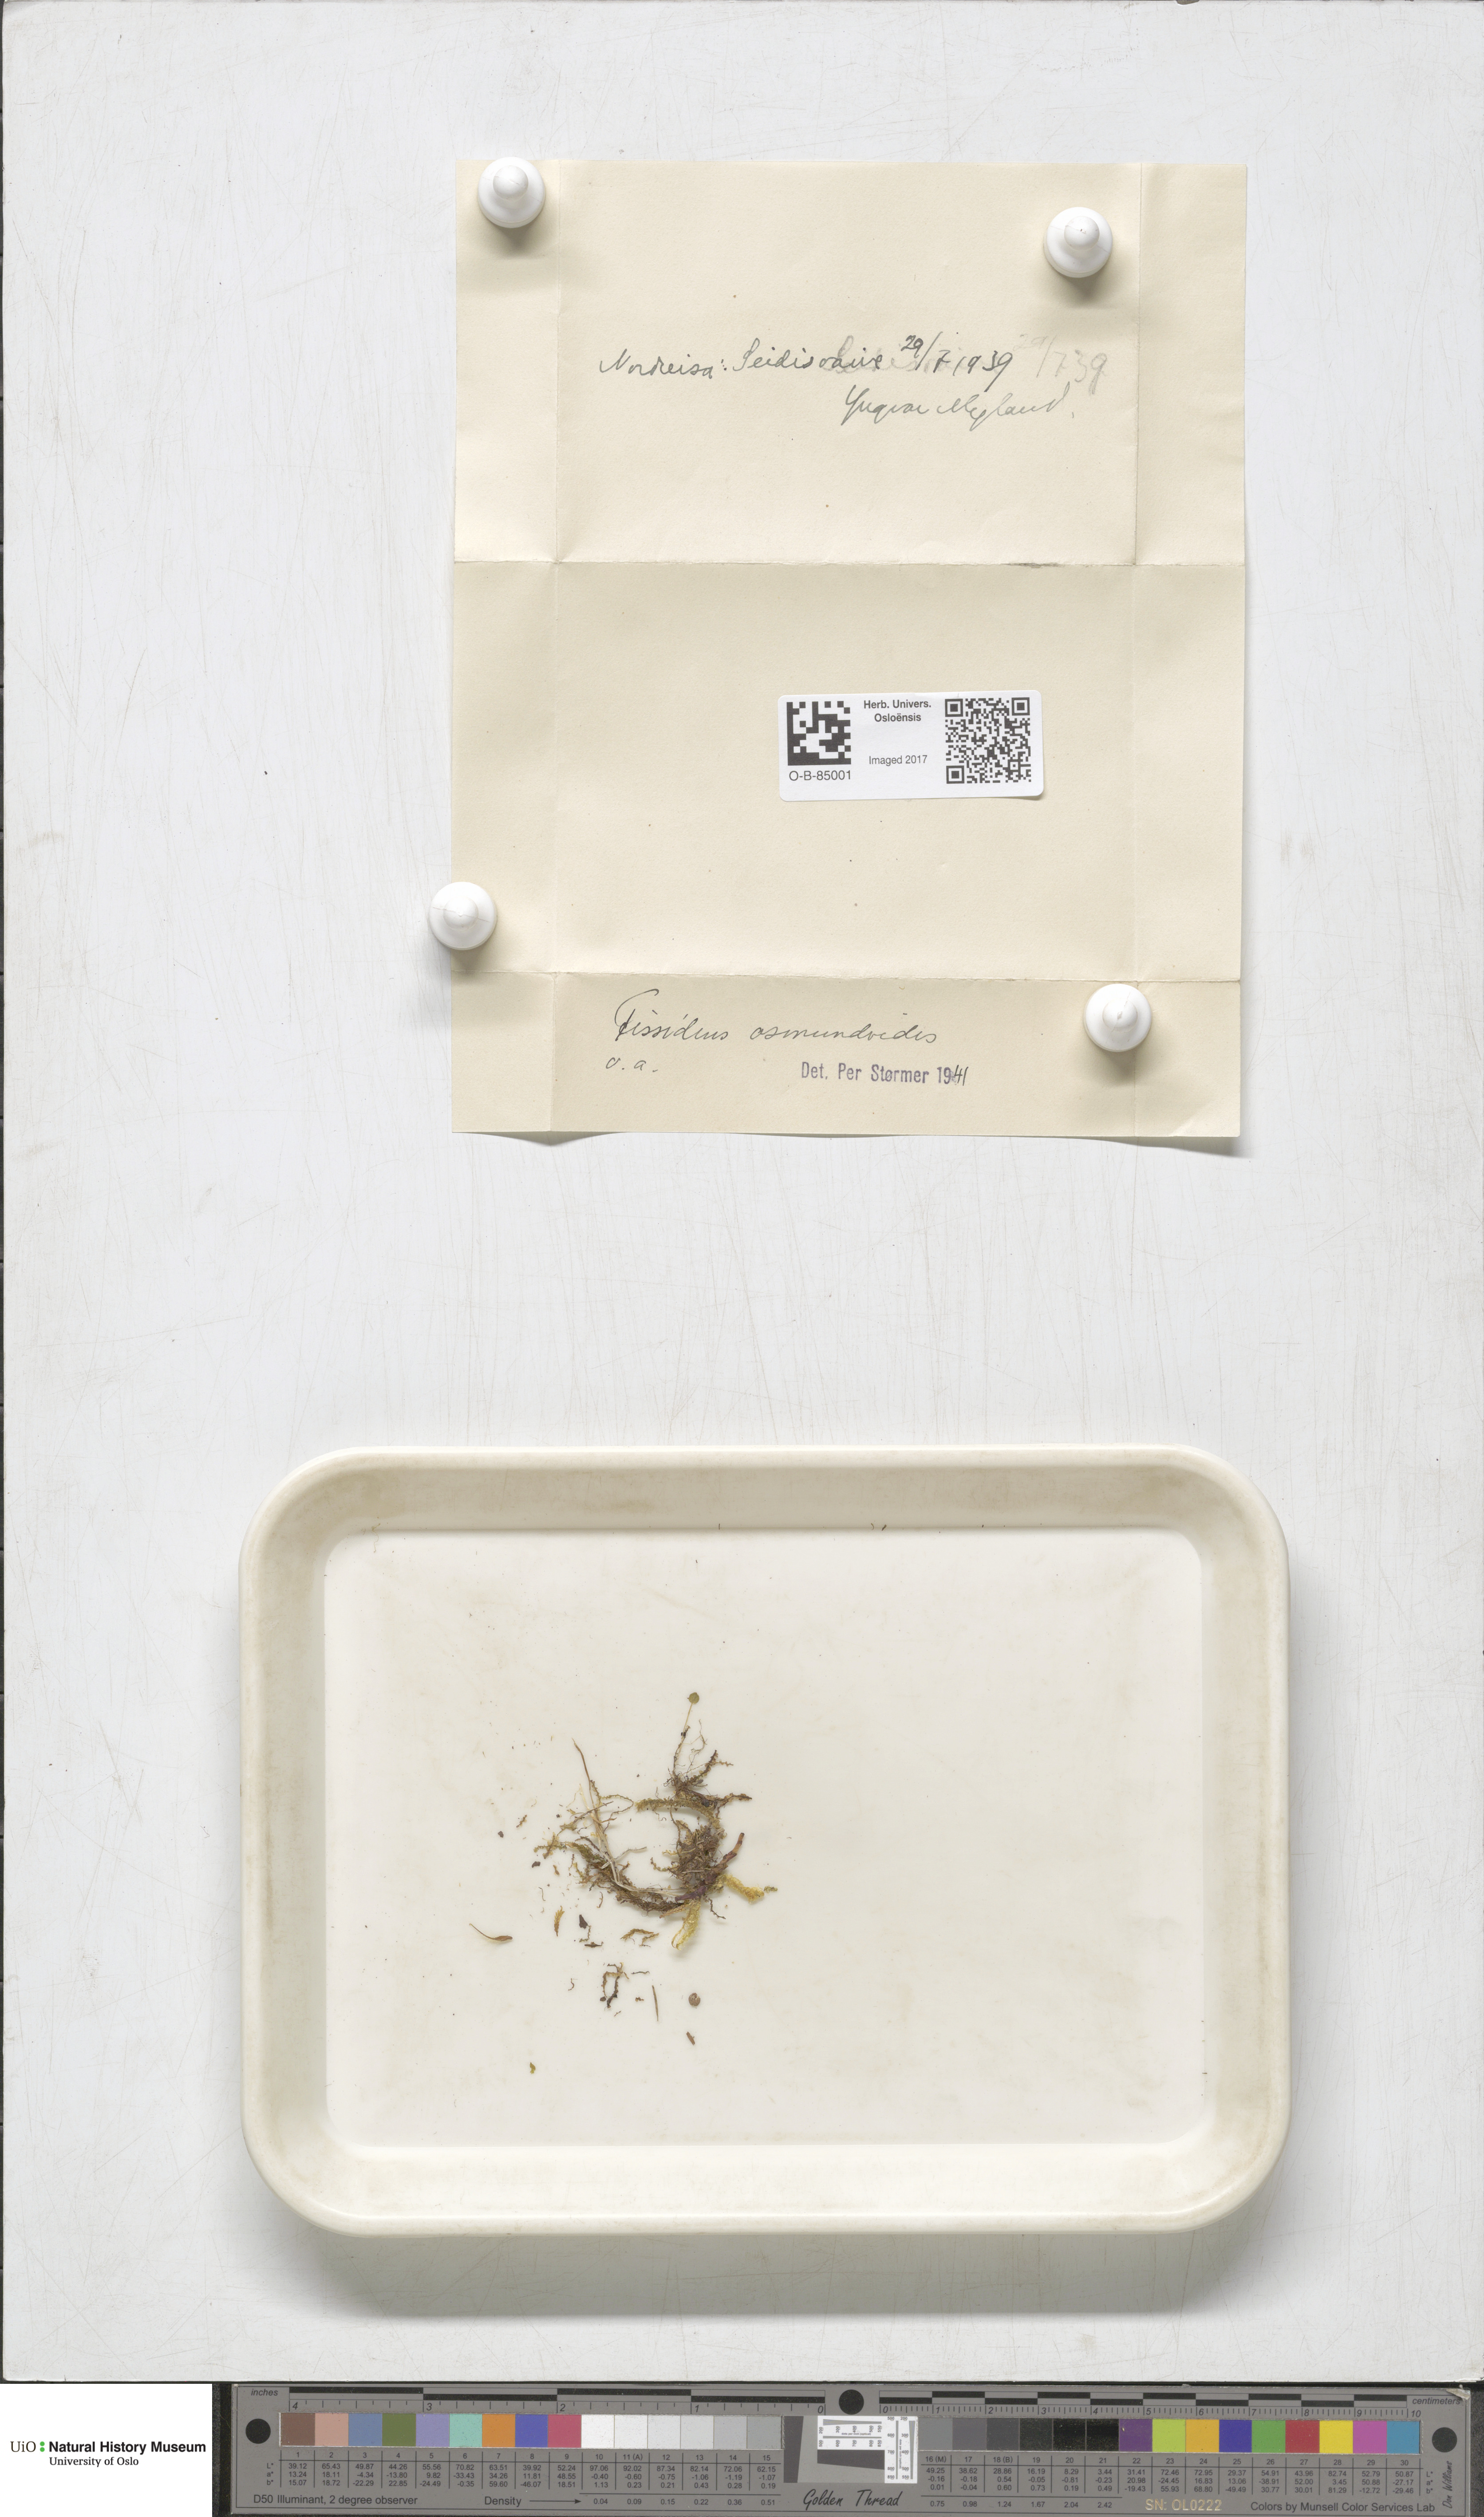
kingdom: Plantae
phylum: Bryophyta
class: Bryopsida
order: Dicranales
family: Fissidentaceae
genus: Fissidens
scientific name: Fissidens osmundoides
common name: Purple-stalked pocket moss
